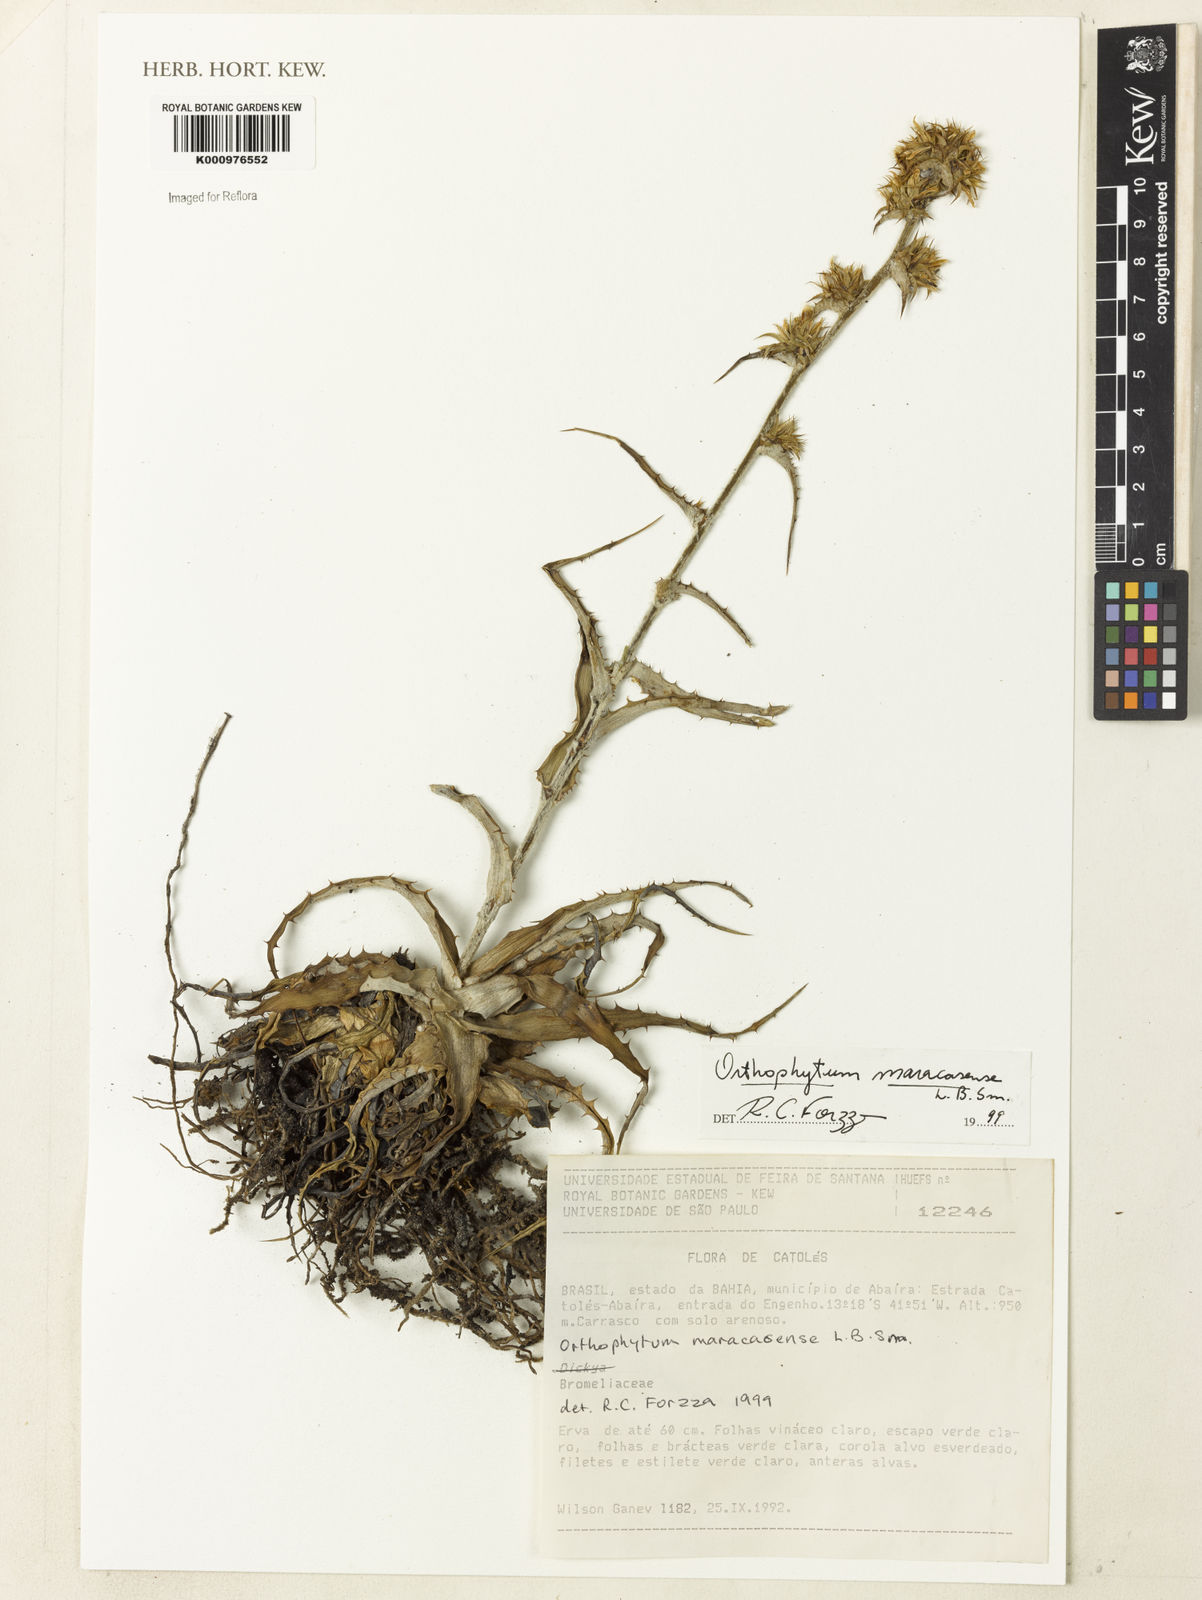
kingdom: Plantae
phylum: Tracheophyta
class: Liliopsida
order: Poales
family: Bromeliaceae
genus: Orthophytum
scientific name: Orthophytum maracasense
